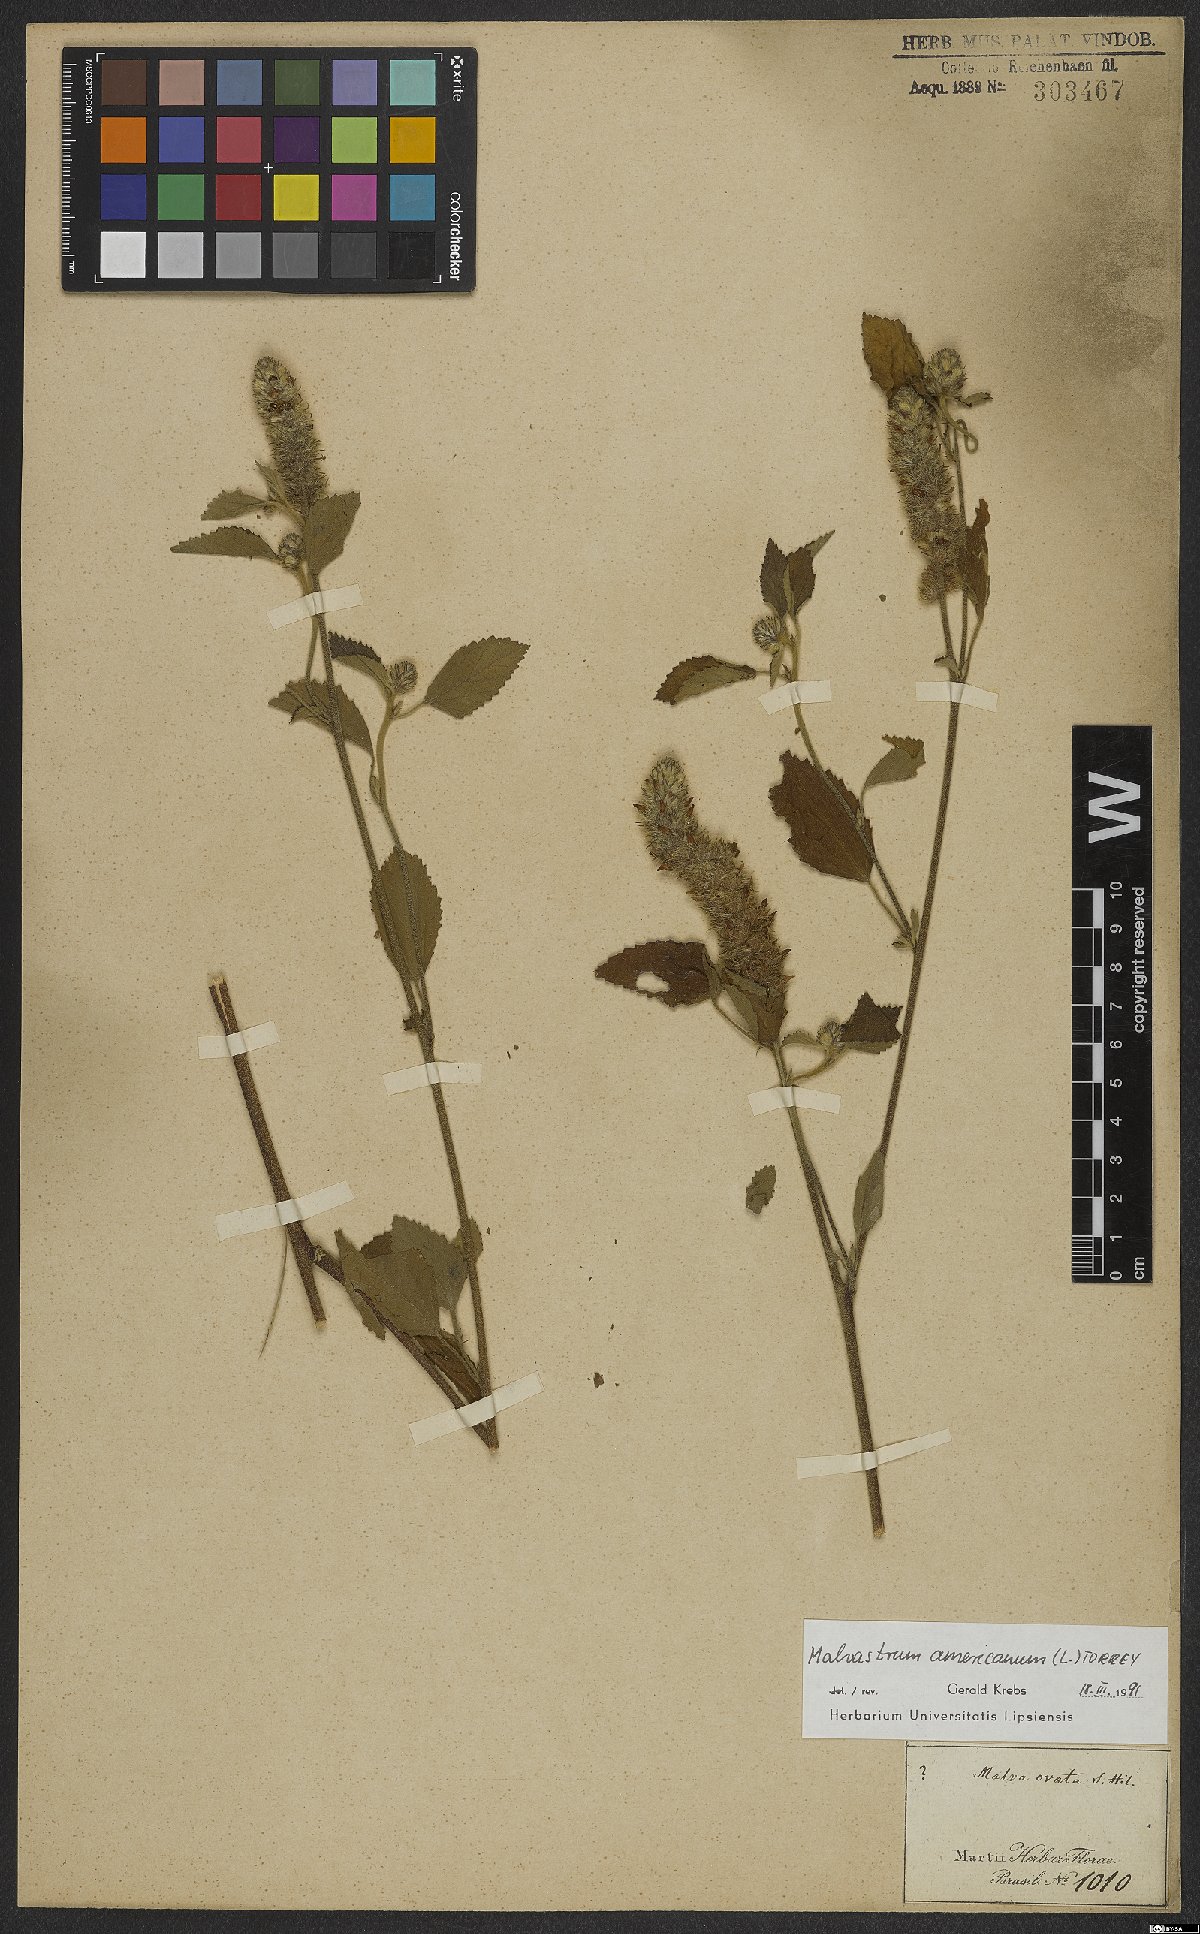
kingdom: Plantae
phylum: Tracheophyta
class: Magnoliopsida
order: Malvales
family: Malvaceae
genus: Malvastrum
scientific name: Malvastrum americanum
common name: Spiked malvastrum
